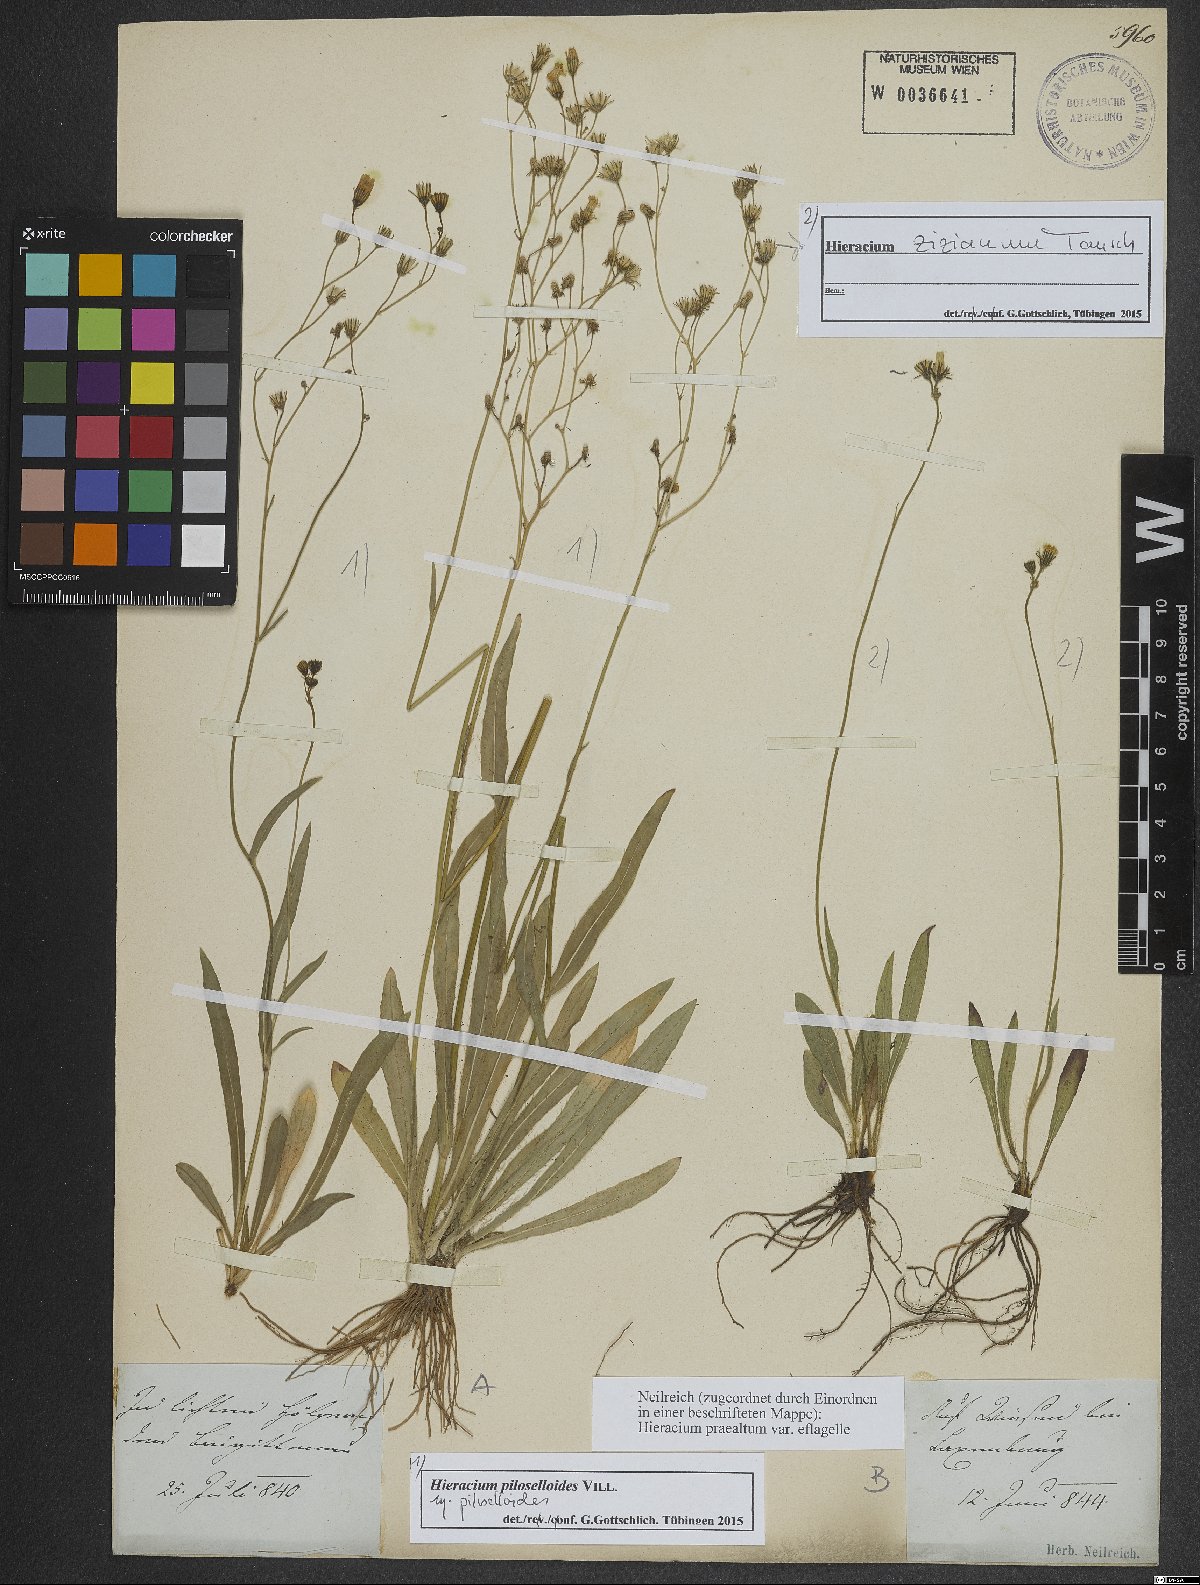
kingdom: Plantae
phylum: Tracheophyta
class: Magnoliopsida
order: Asterales
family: Asteraceae
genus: Pilosella
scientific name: Pilosella piloselloides
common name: Glaucous king-devil
